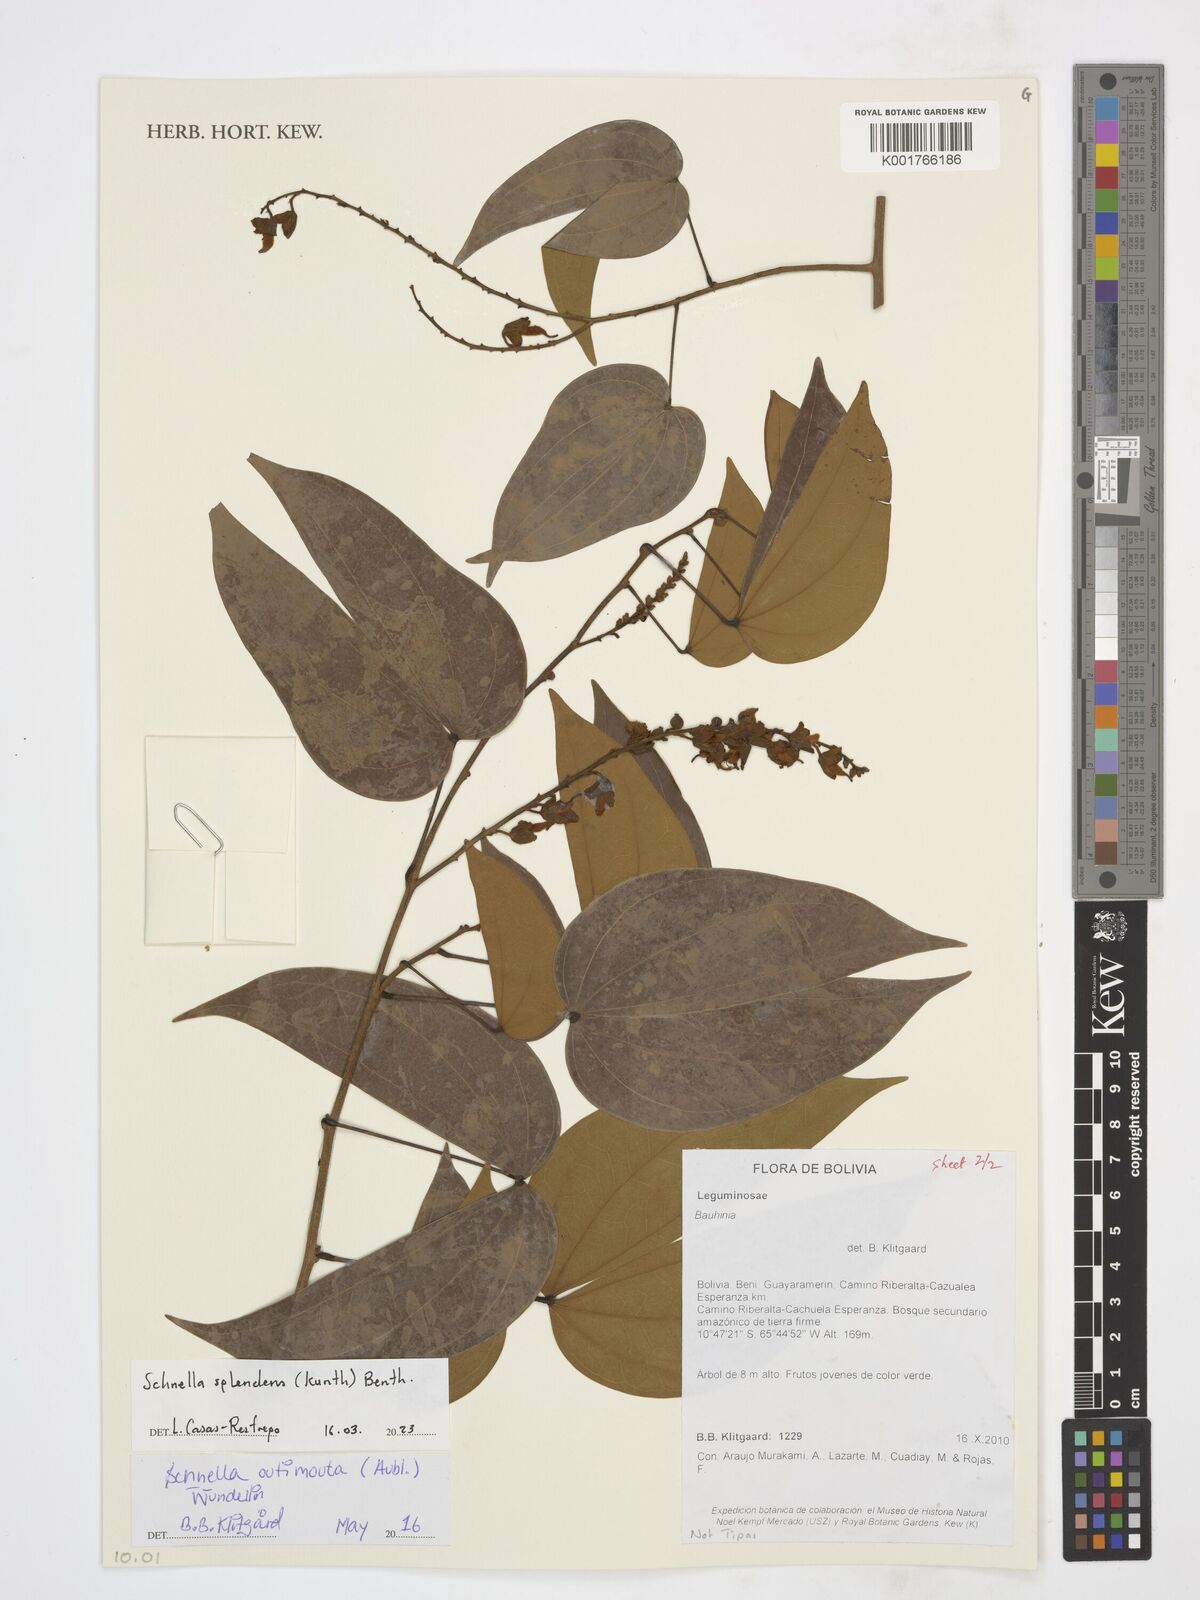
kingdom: Plantae
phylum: Tracheophyta
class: Magnoliopsida
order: Fabales
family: Fabaceae
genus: Schnella
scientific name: Schnella splendens
